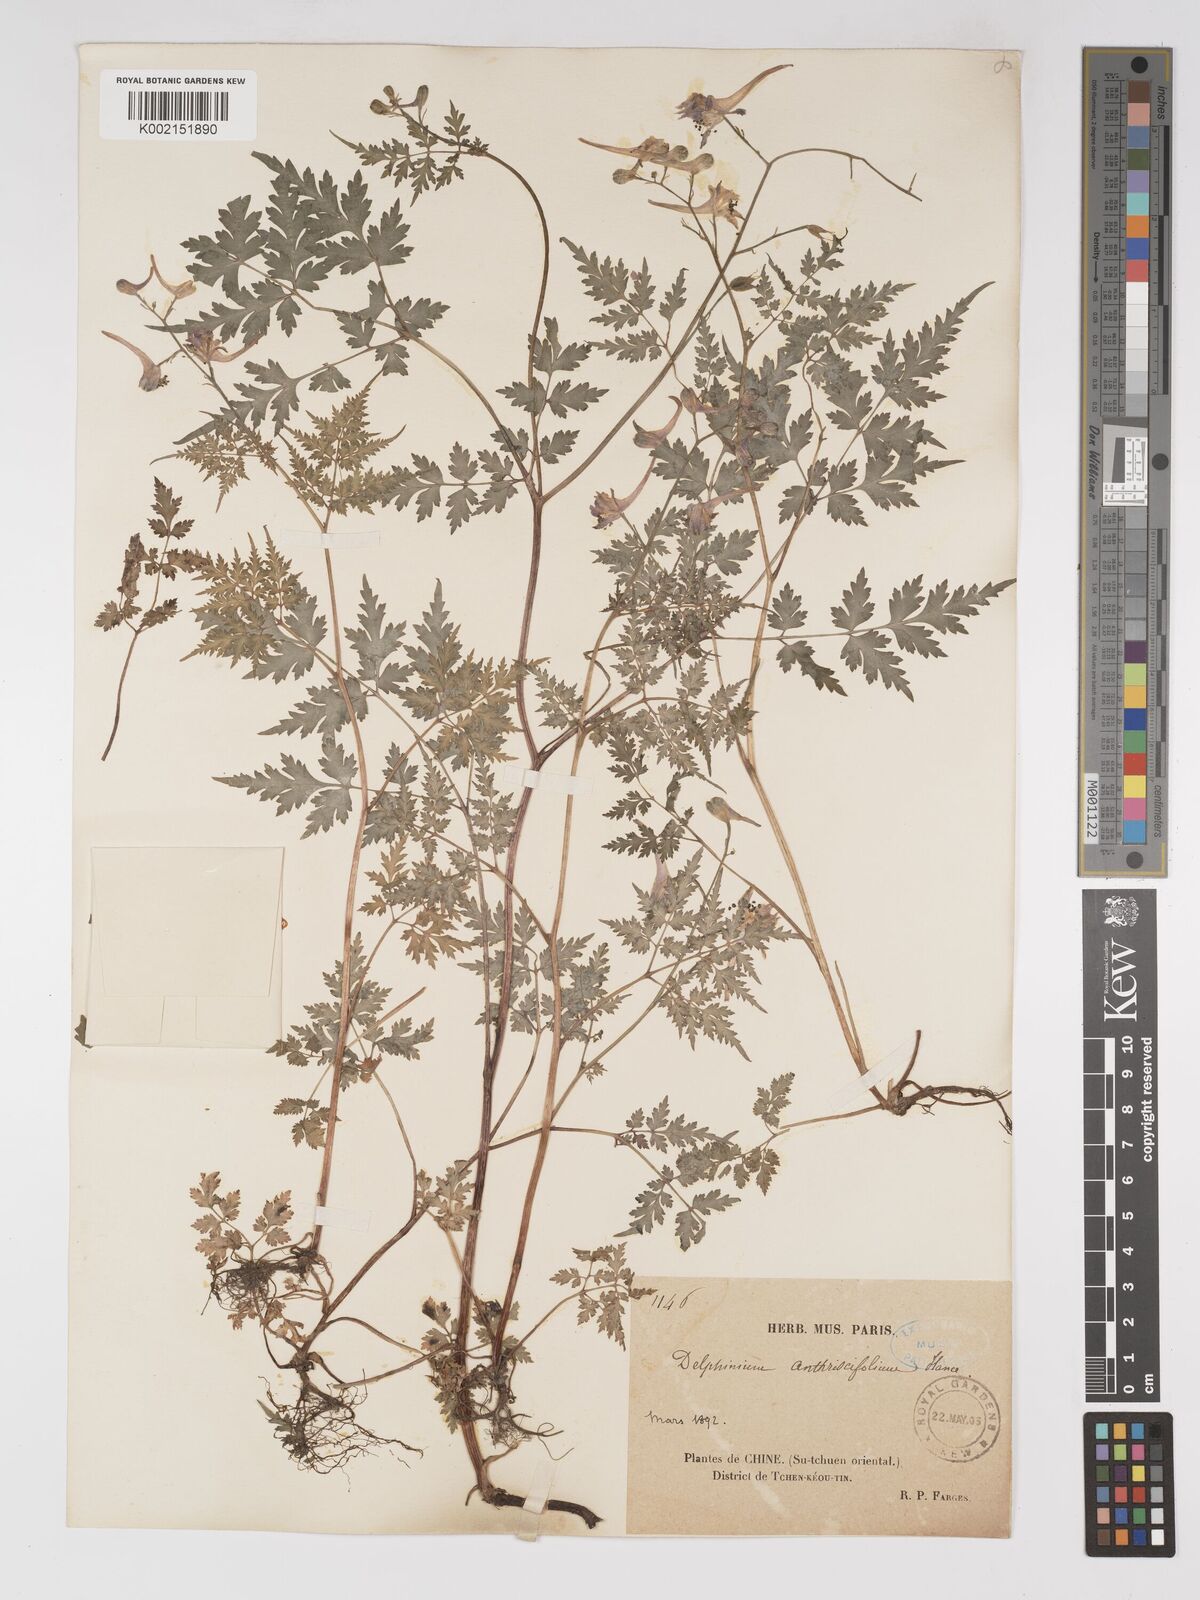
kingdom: Plantae
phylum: Tracheophyta
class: Magnoliopsida
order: Ranunculales
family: Ranunculaceae
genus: Delphinium
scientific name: Delphinium anthriscifolium
